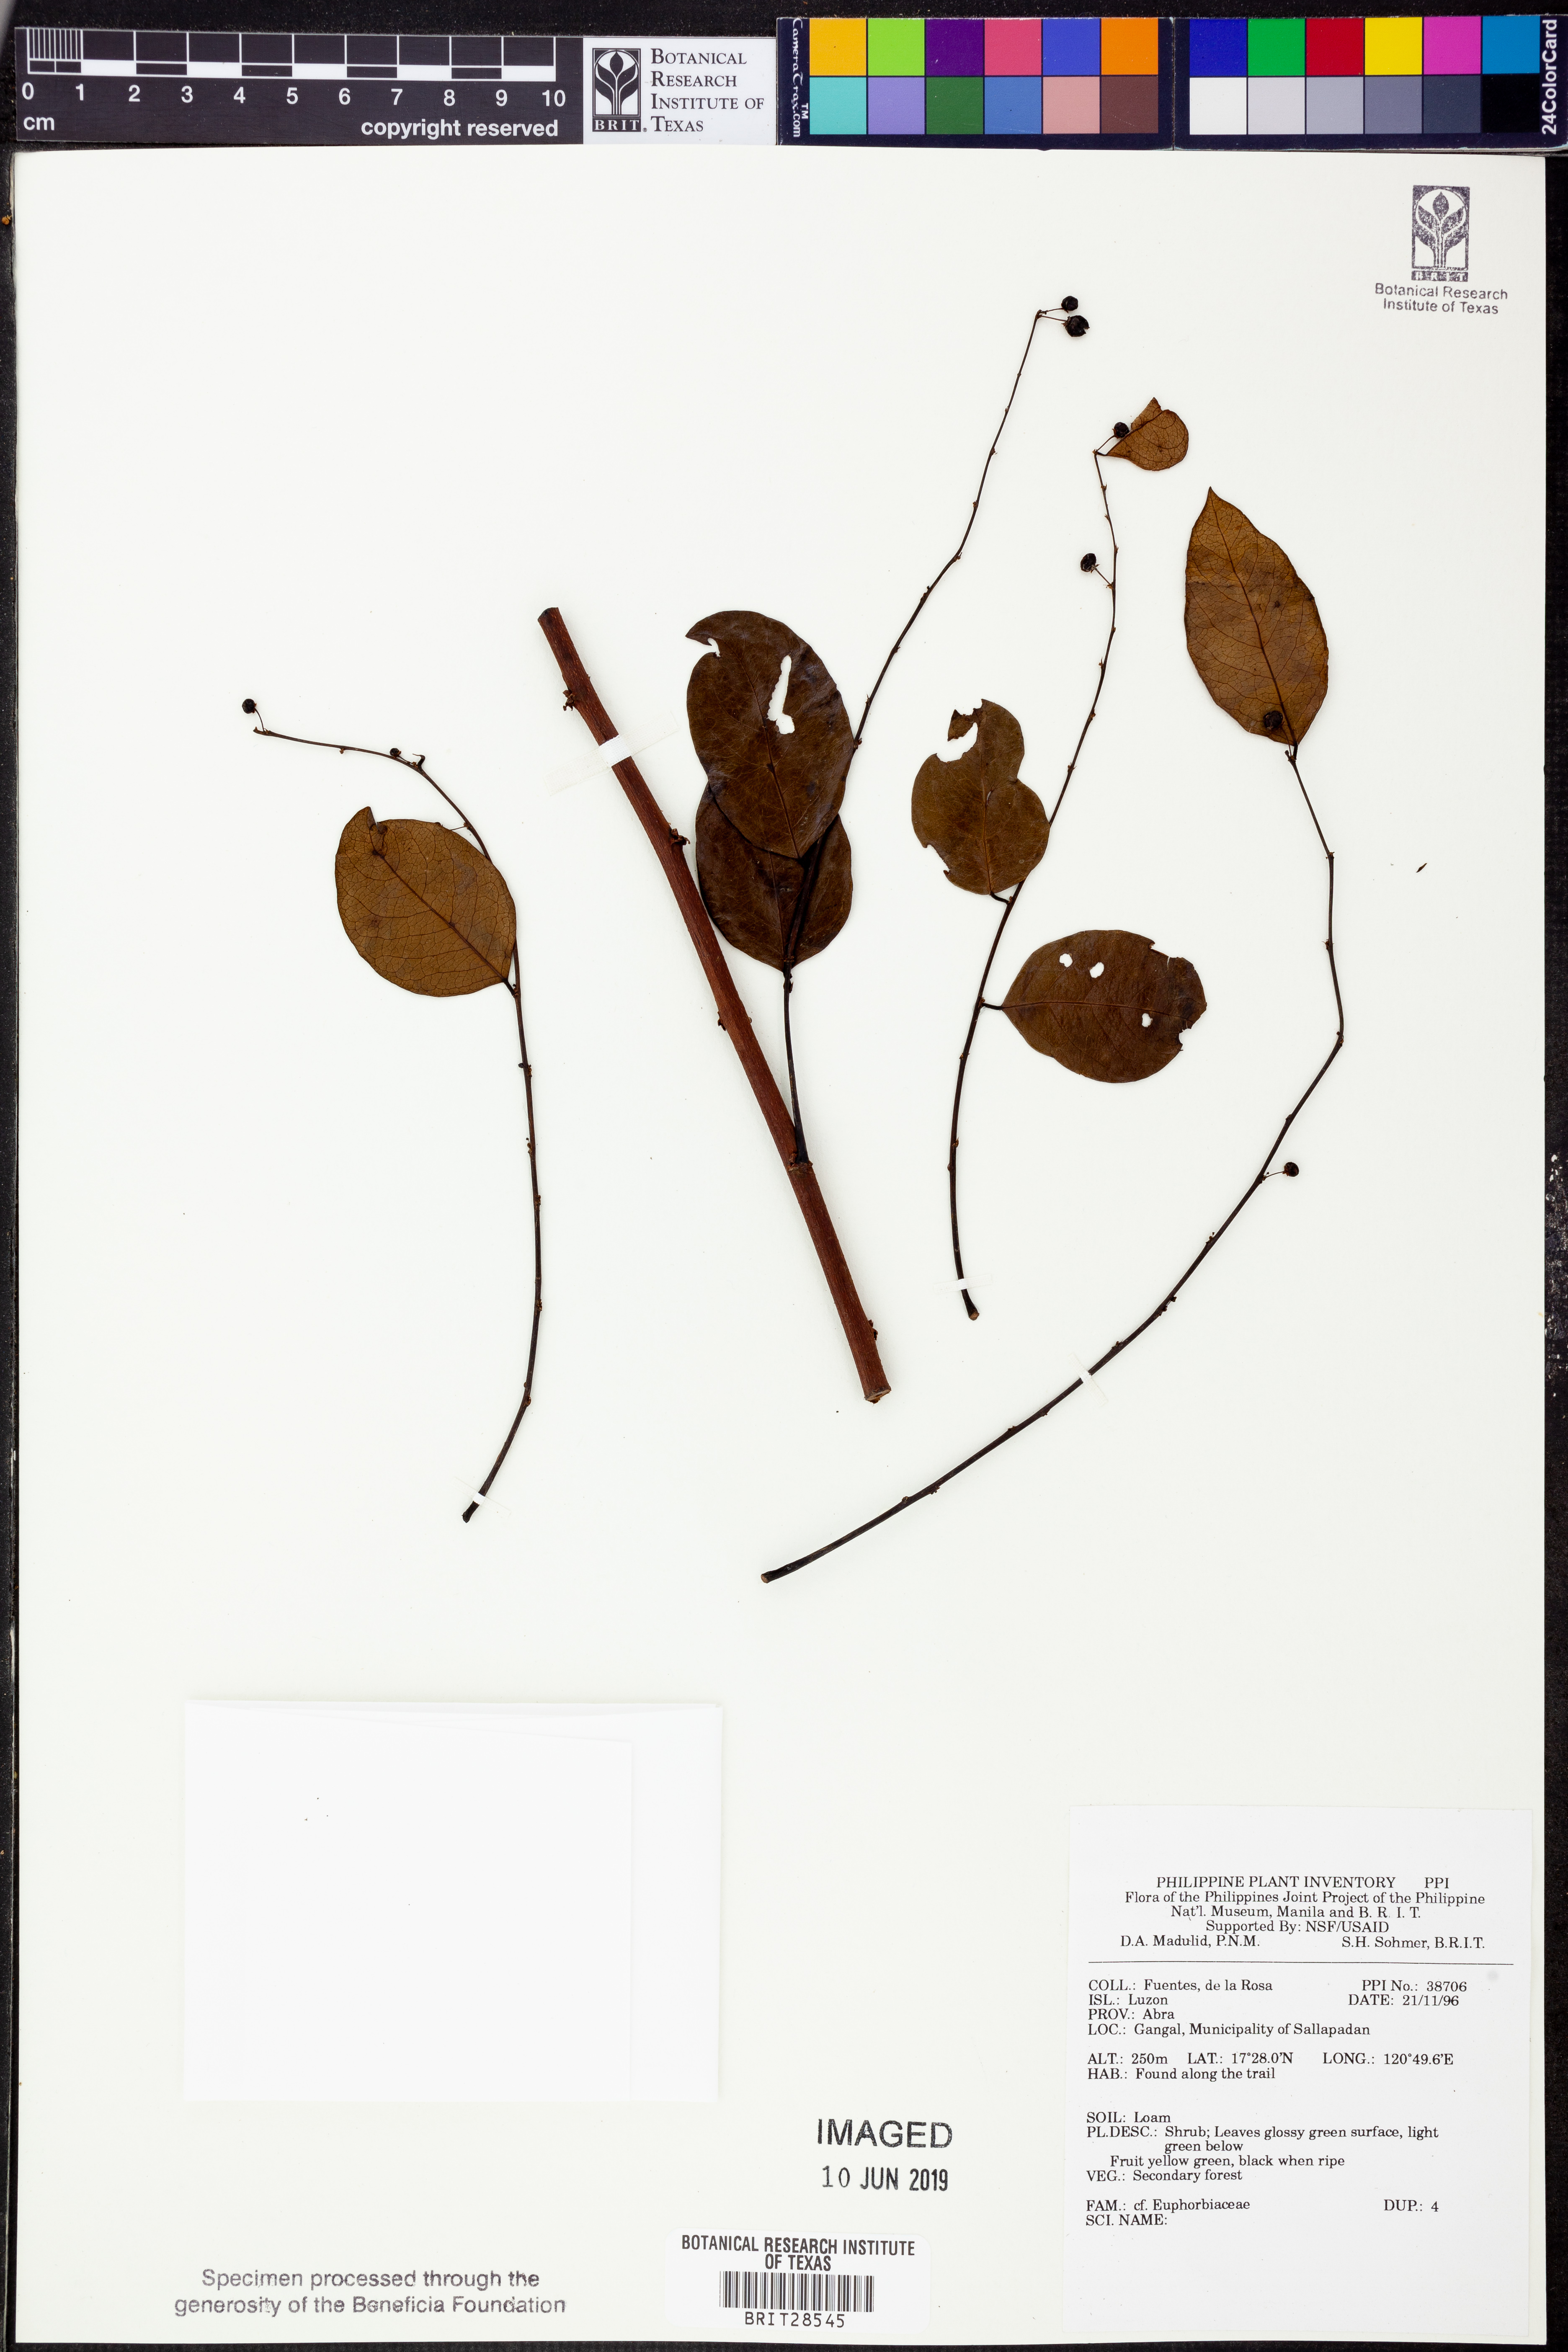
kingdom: Plantae
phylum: Tracheophyta
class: Magnoliopsida
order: Malpighiales
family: Euphorbiaceae
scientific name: Euphorbiaceae
